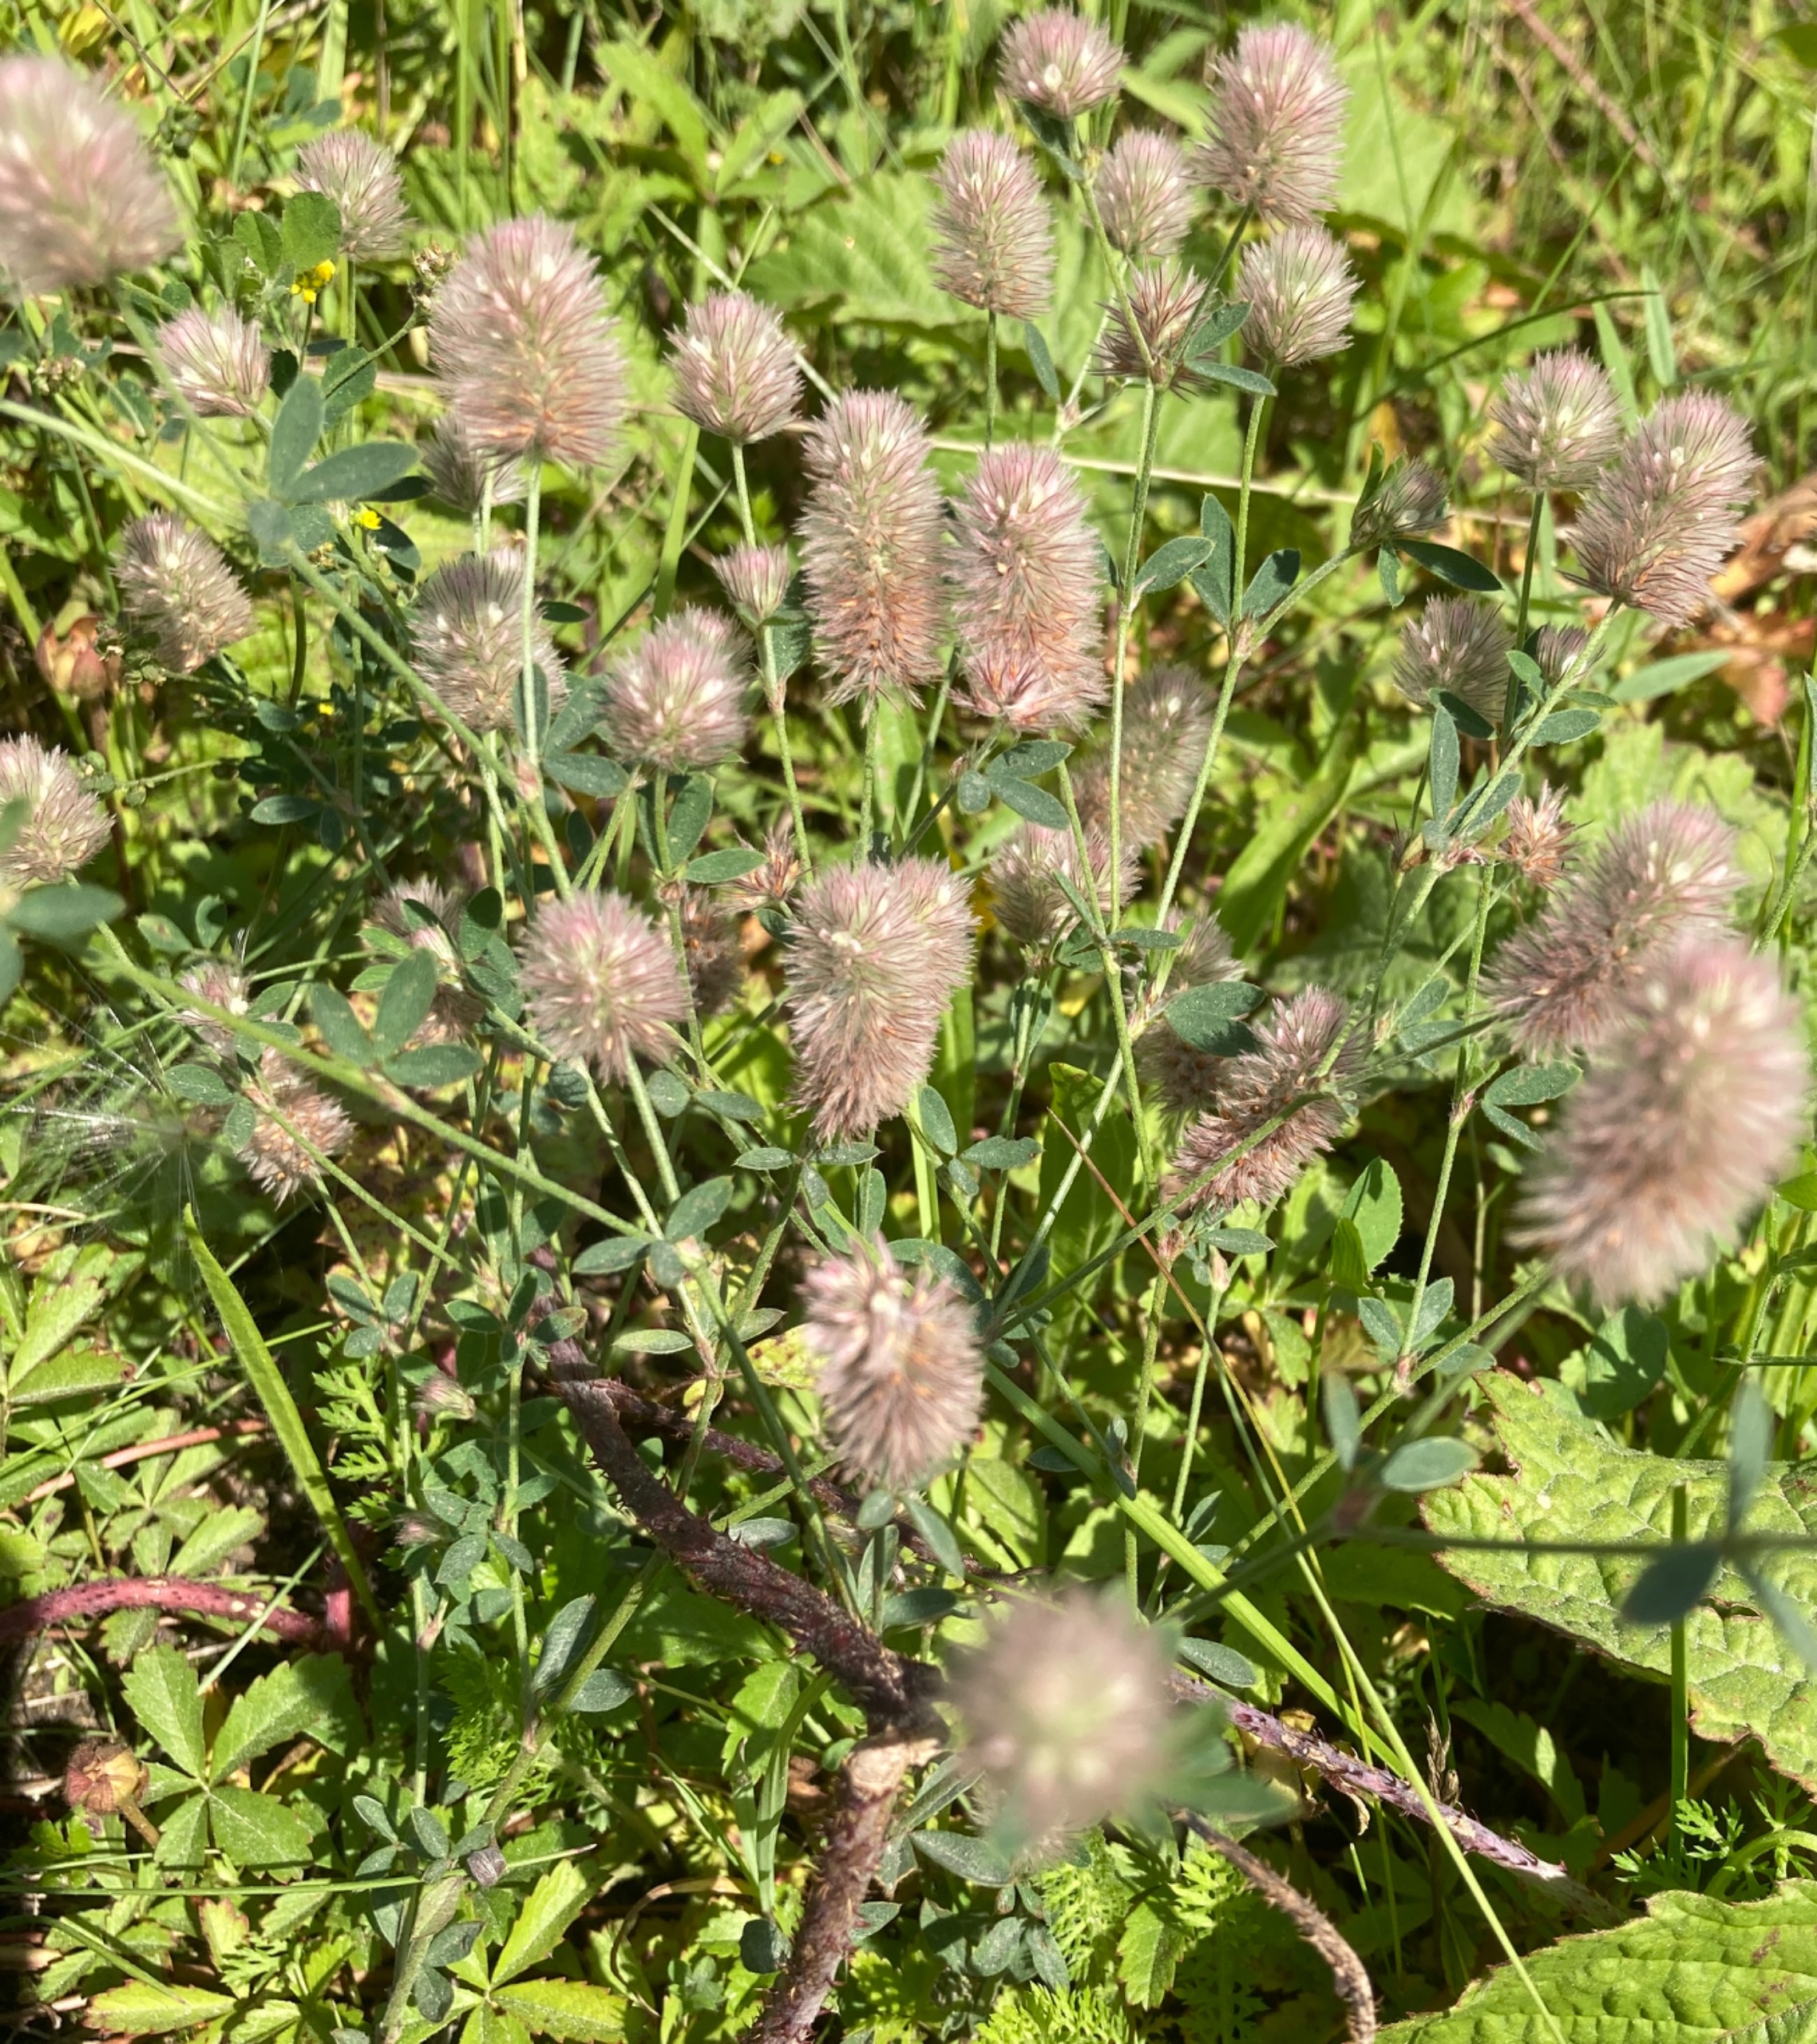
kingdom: Plantae
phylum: Tracheophyta
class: Magnoliopsida
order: Fabales
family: Fabaceae
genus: Trifolium
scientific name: Trifolium arvense
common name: Hare-kløver
